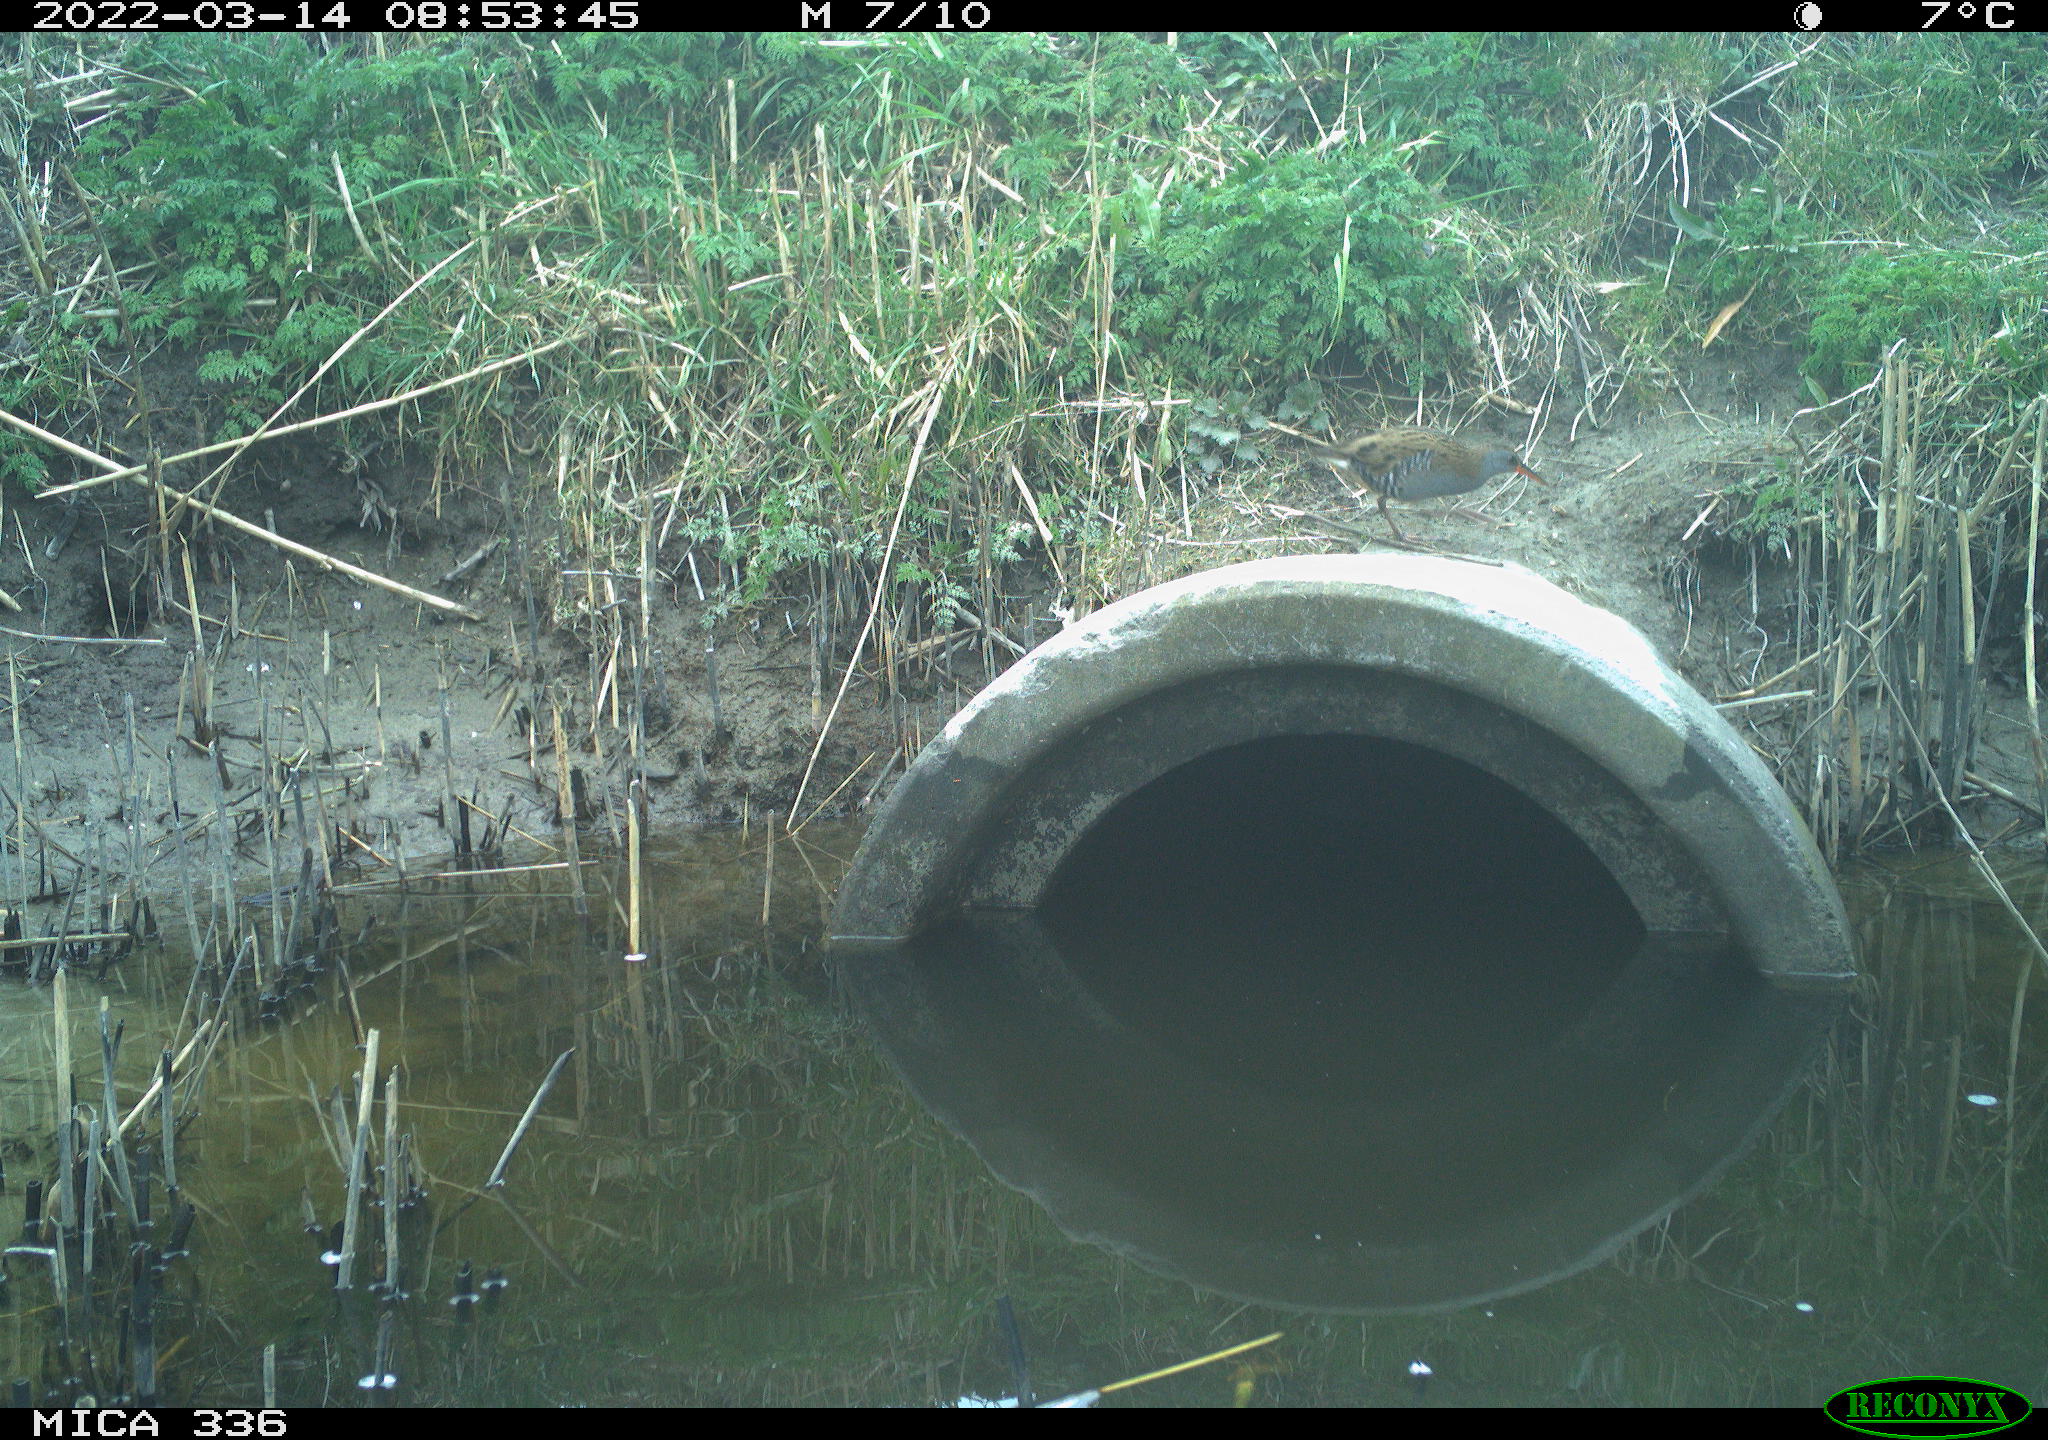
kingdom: Animalia
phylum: Chordata
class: Aves
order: Gruiformes
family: Rallidae
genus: Rallus
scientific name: Rallus aquaticus
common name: Water rail
